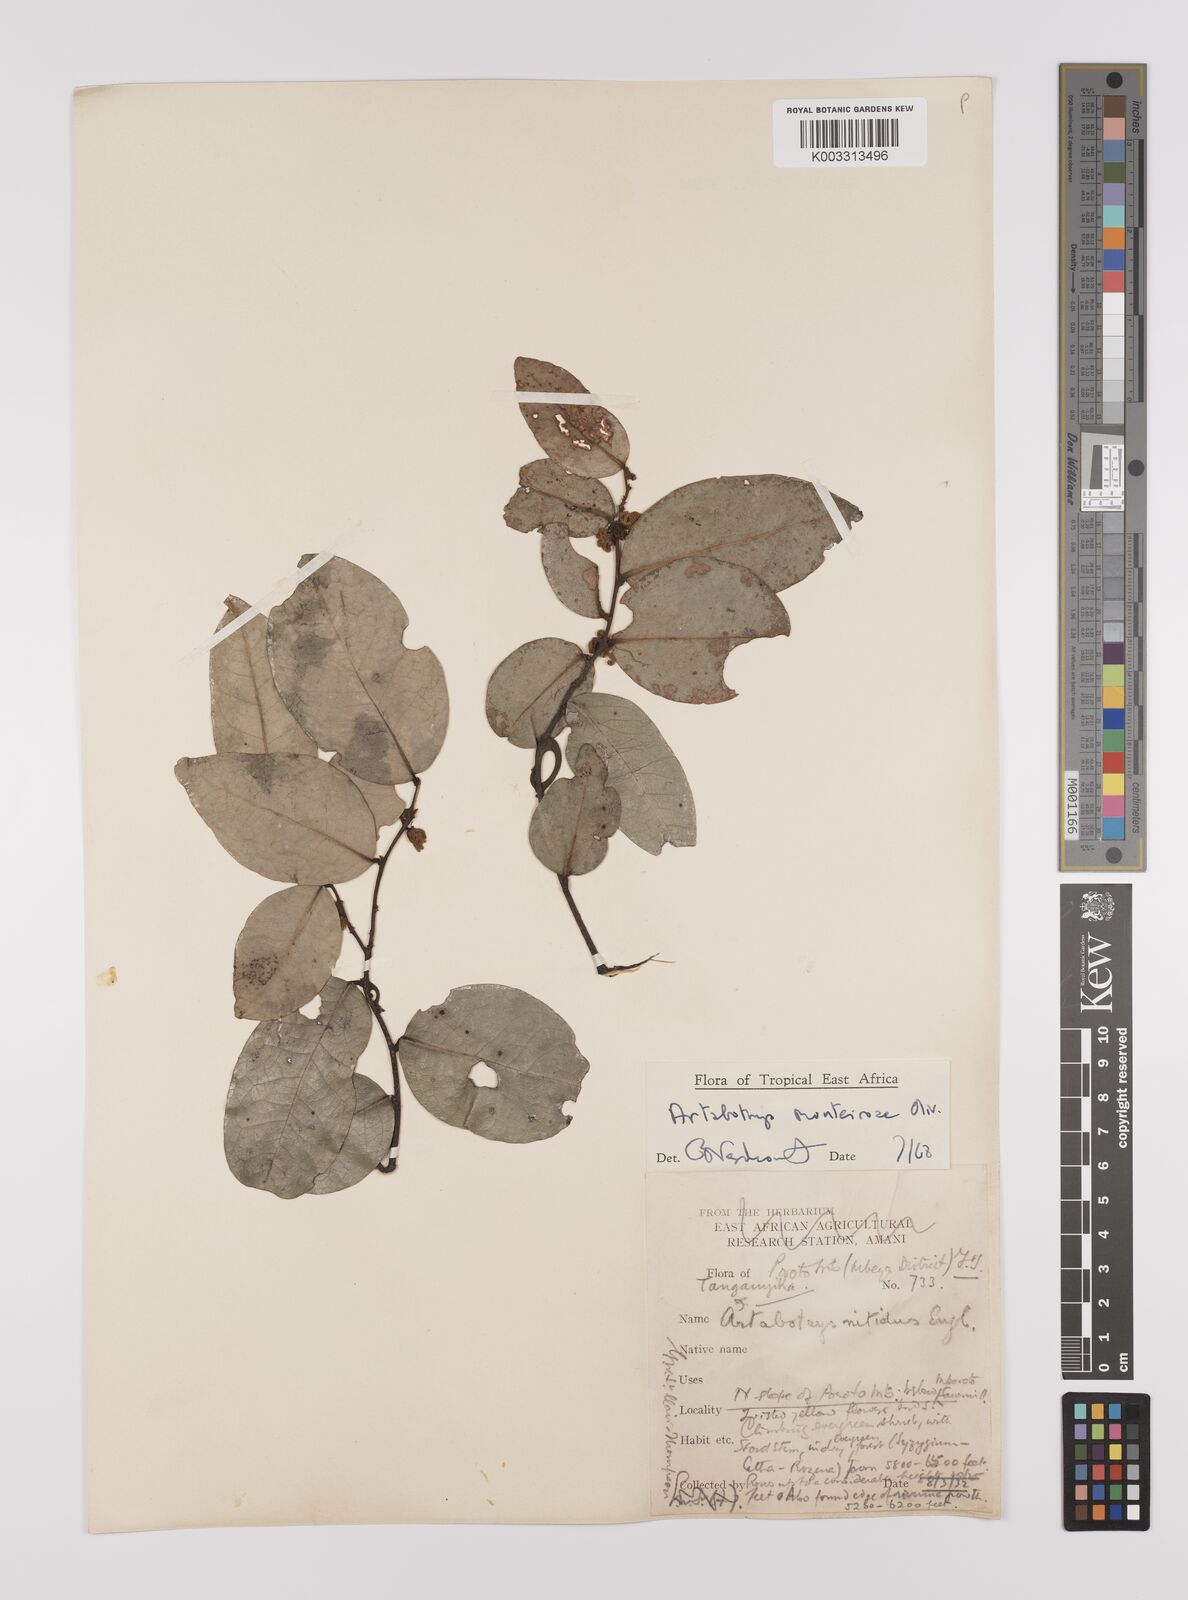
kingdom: Plantae
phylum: Tracheophyta
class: Magnoliopsida
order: Magnoliales
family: Annonaceae
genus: Artabotrys
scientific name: Artabotrys monteiroae
